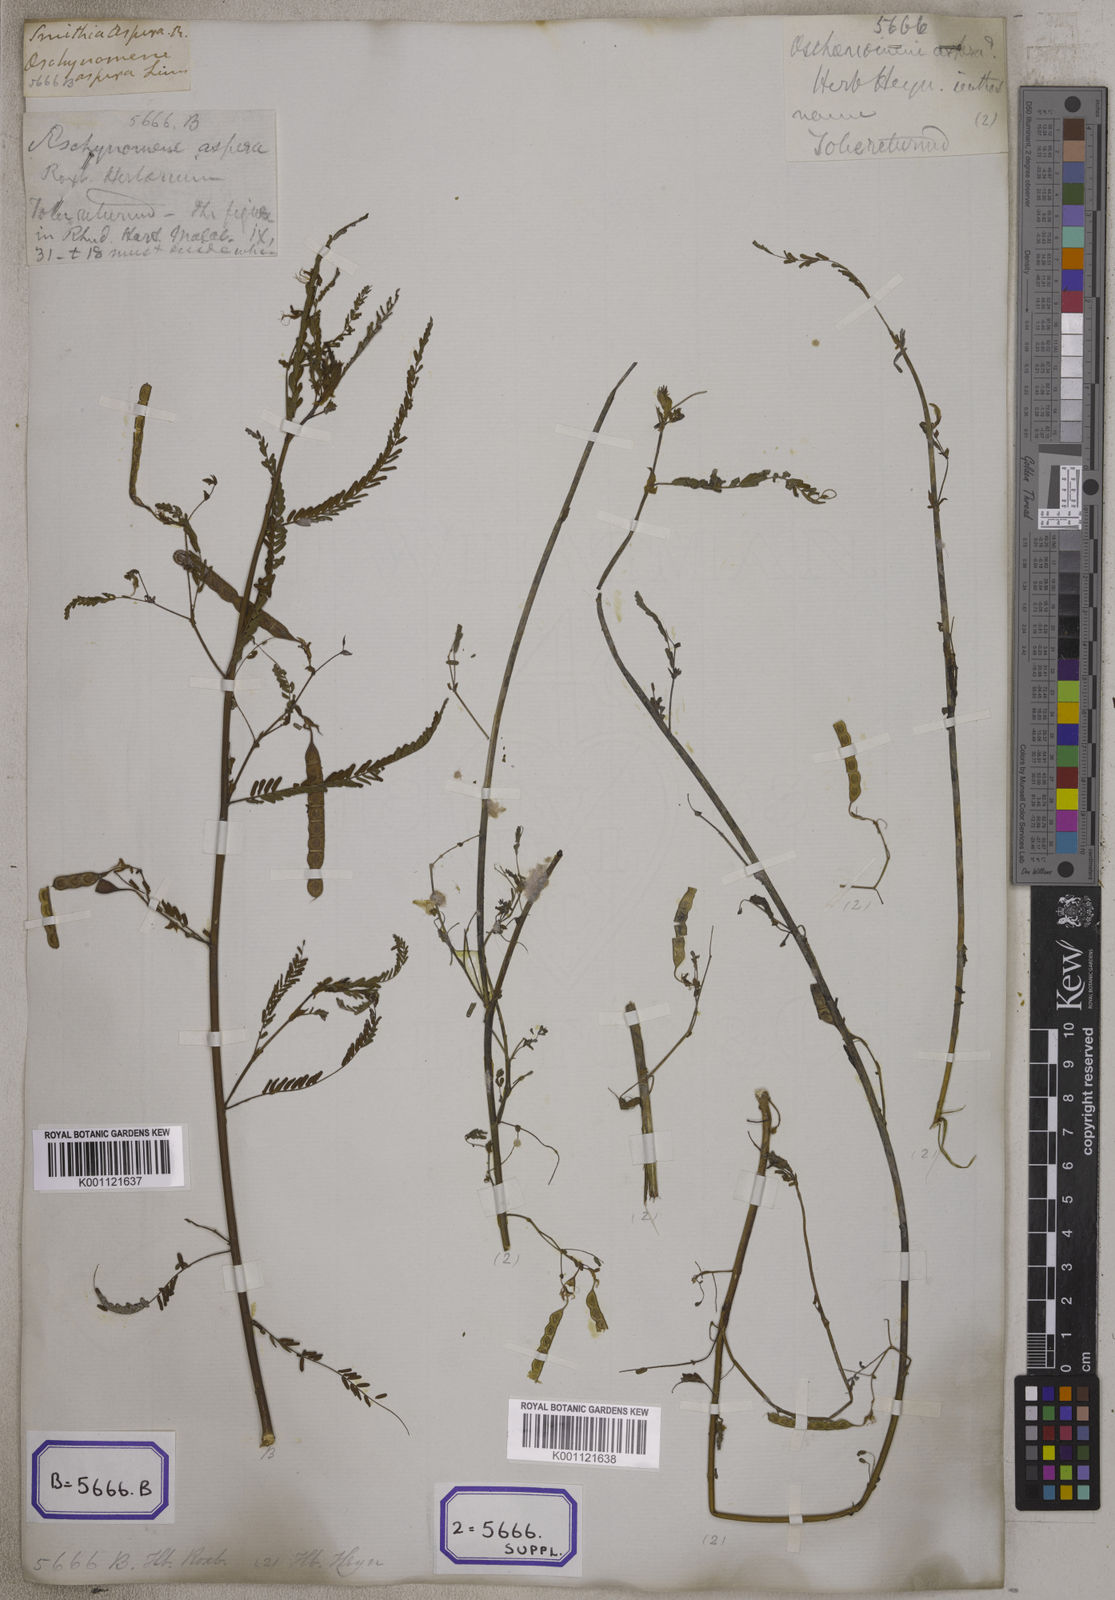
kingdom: Plantae
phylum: Tracheophyta
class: Magnoliopsida
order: Fabales
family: Fabaceae
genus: Aeschynomene
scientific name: Aeschynomene aspera
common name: Pith plant
